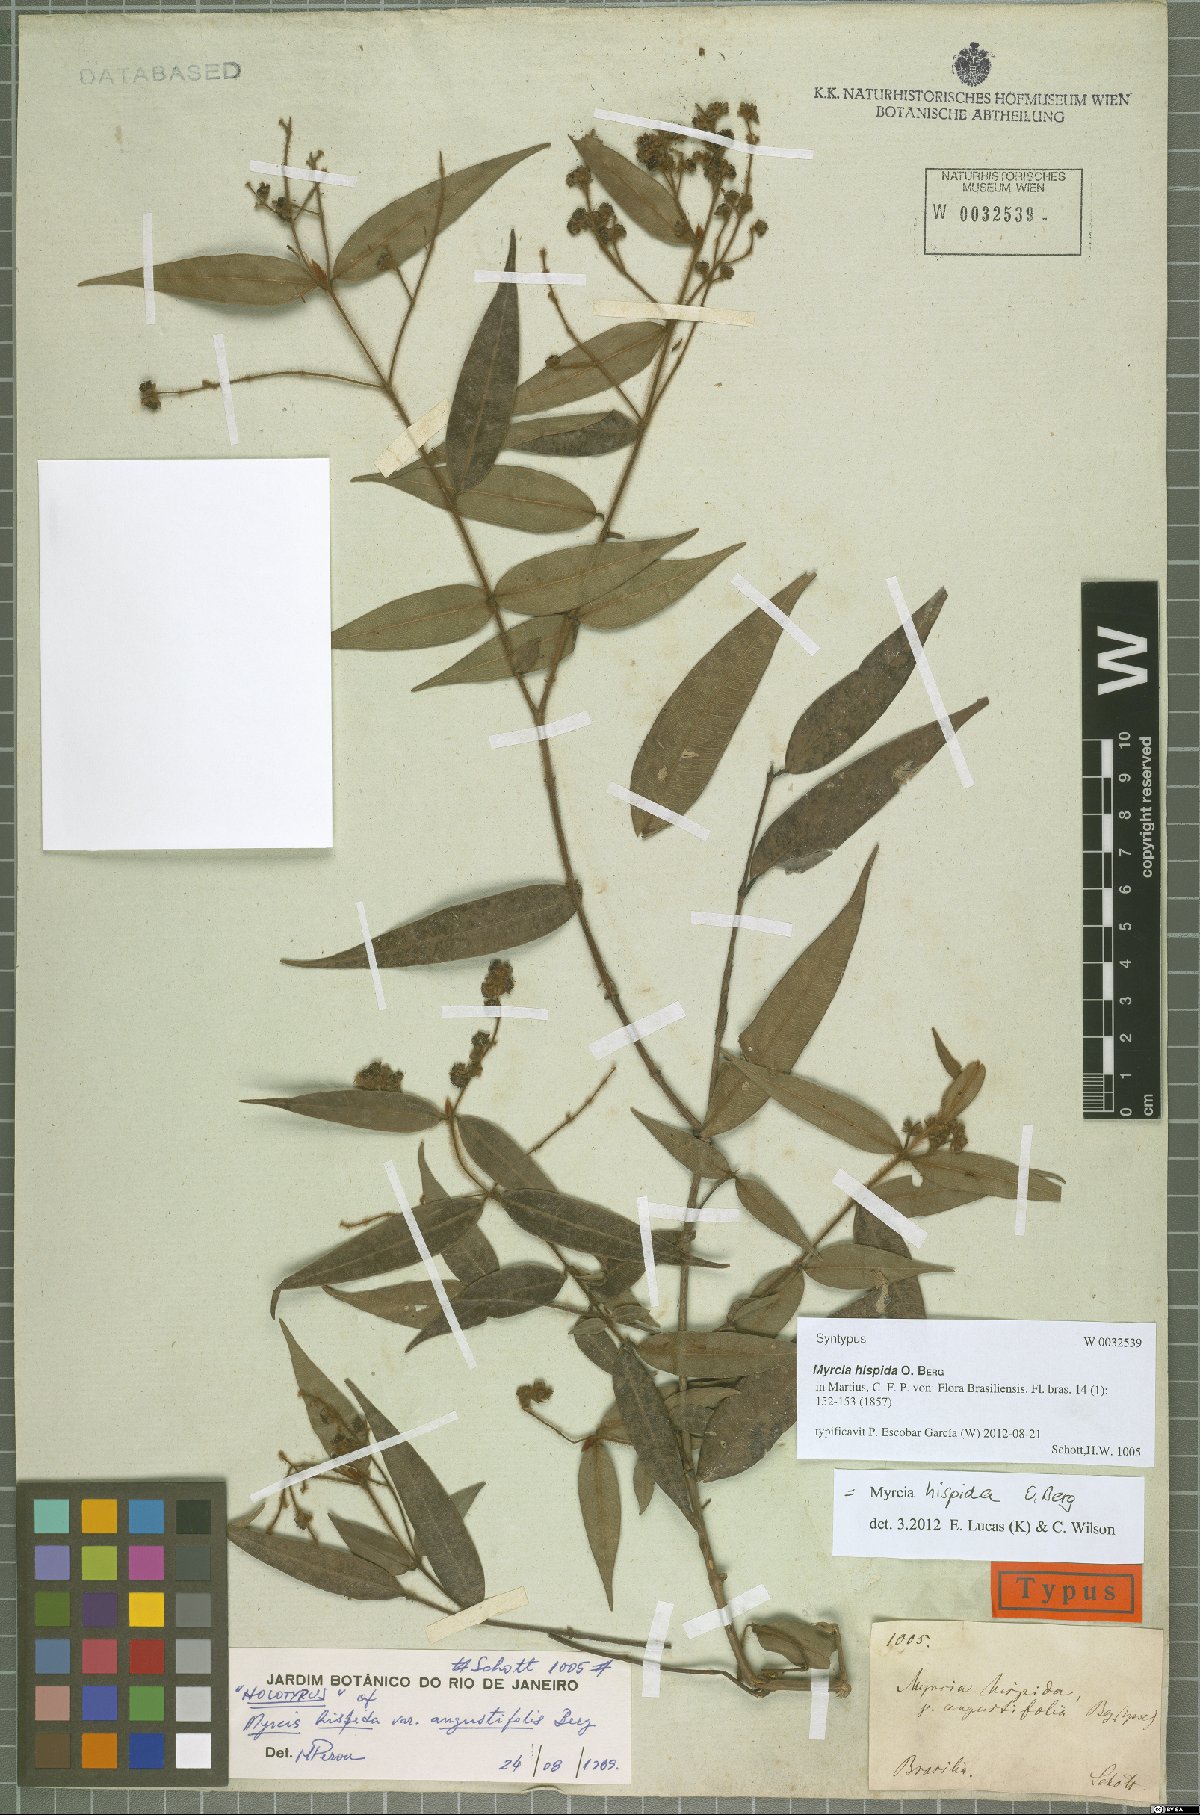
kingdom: Plantae
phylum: Tracheophyta
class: Magnoliopsida
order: Myrtales
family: Myrtaceae
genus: Myrcia
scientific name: Myrcia hispida
